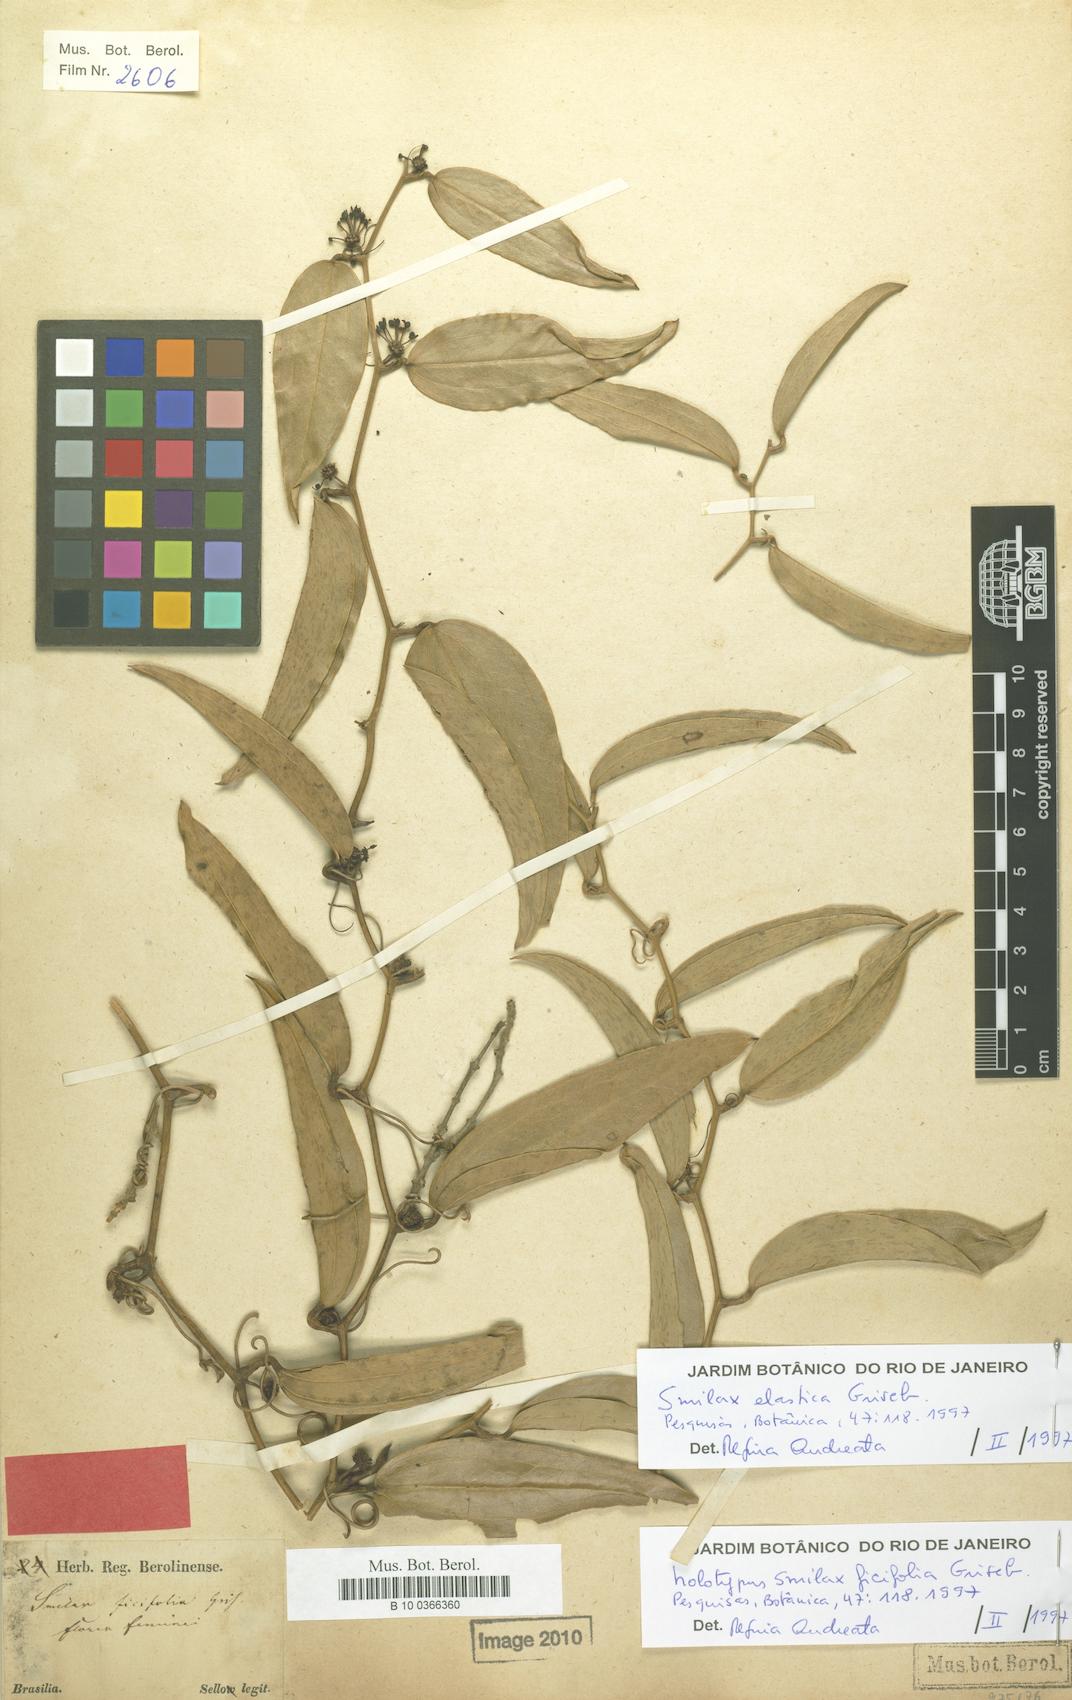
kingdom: Plantae
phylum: Tracheophyta
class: Liliopsida
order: Liliales
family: Smilacaceae
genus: Smilax
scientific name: Smilax elastica
